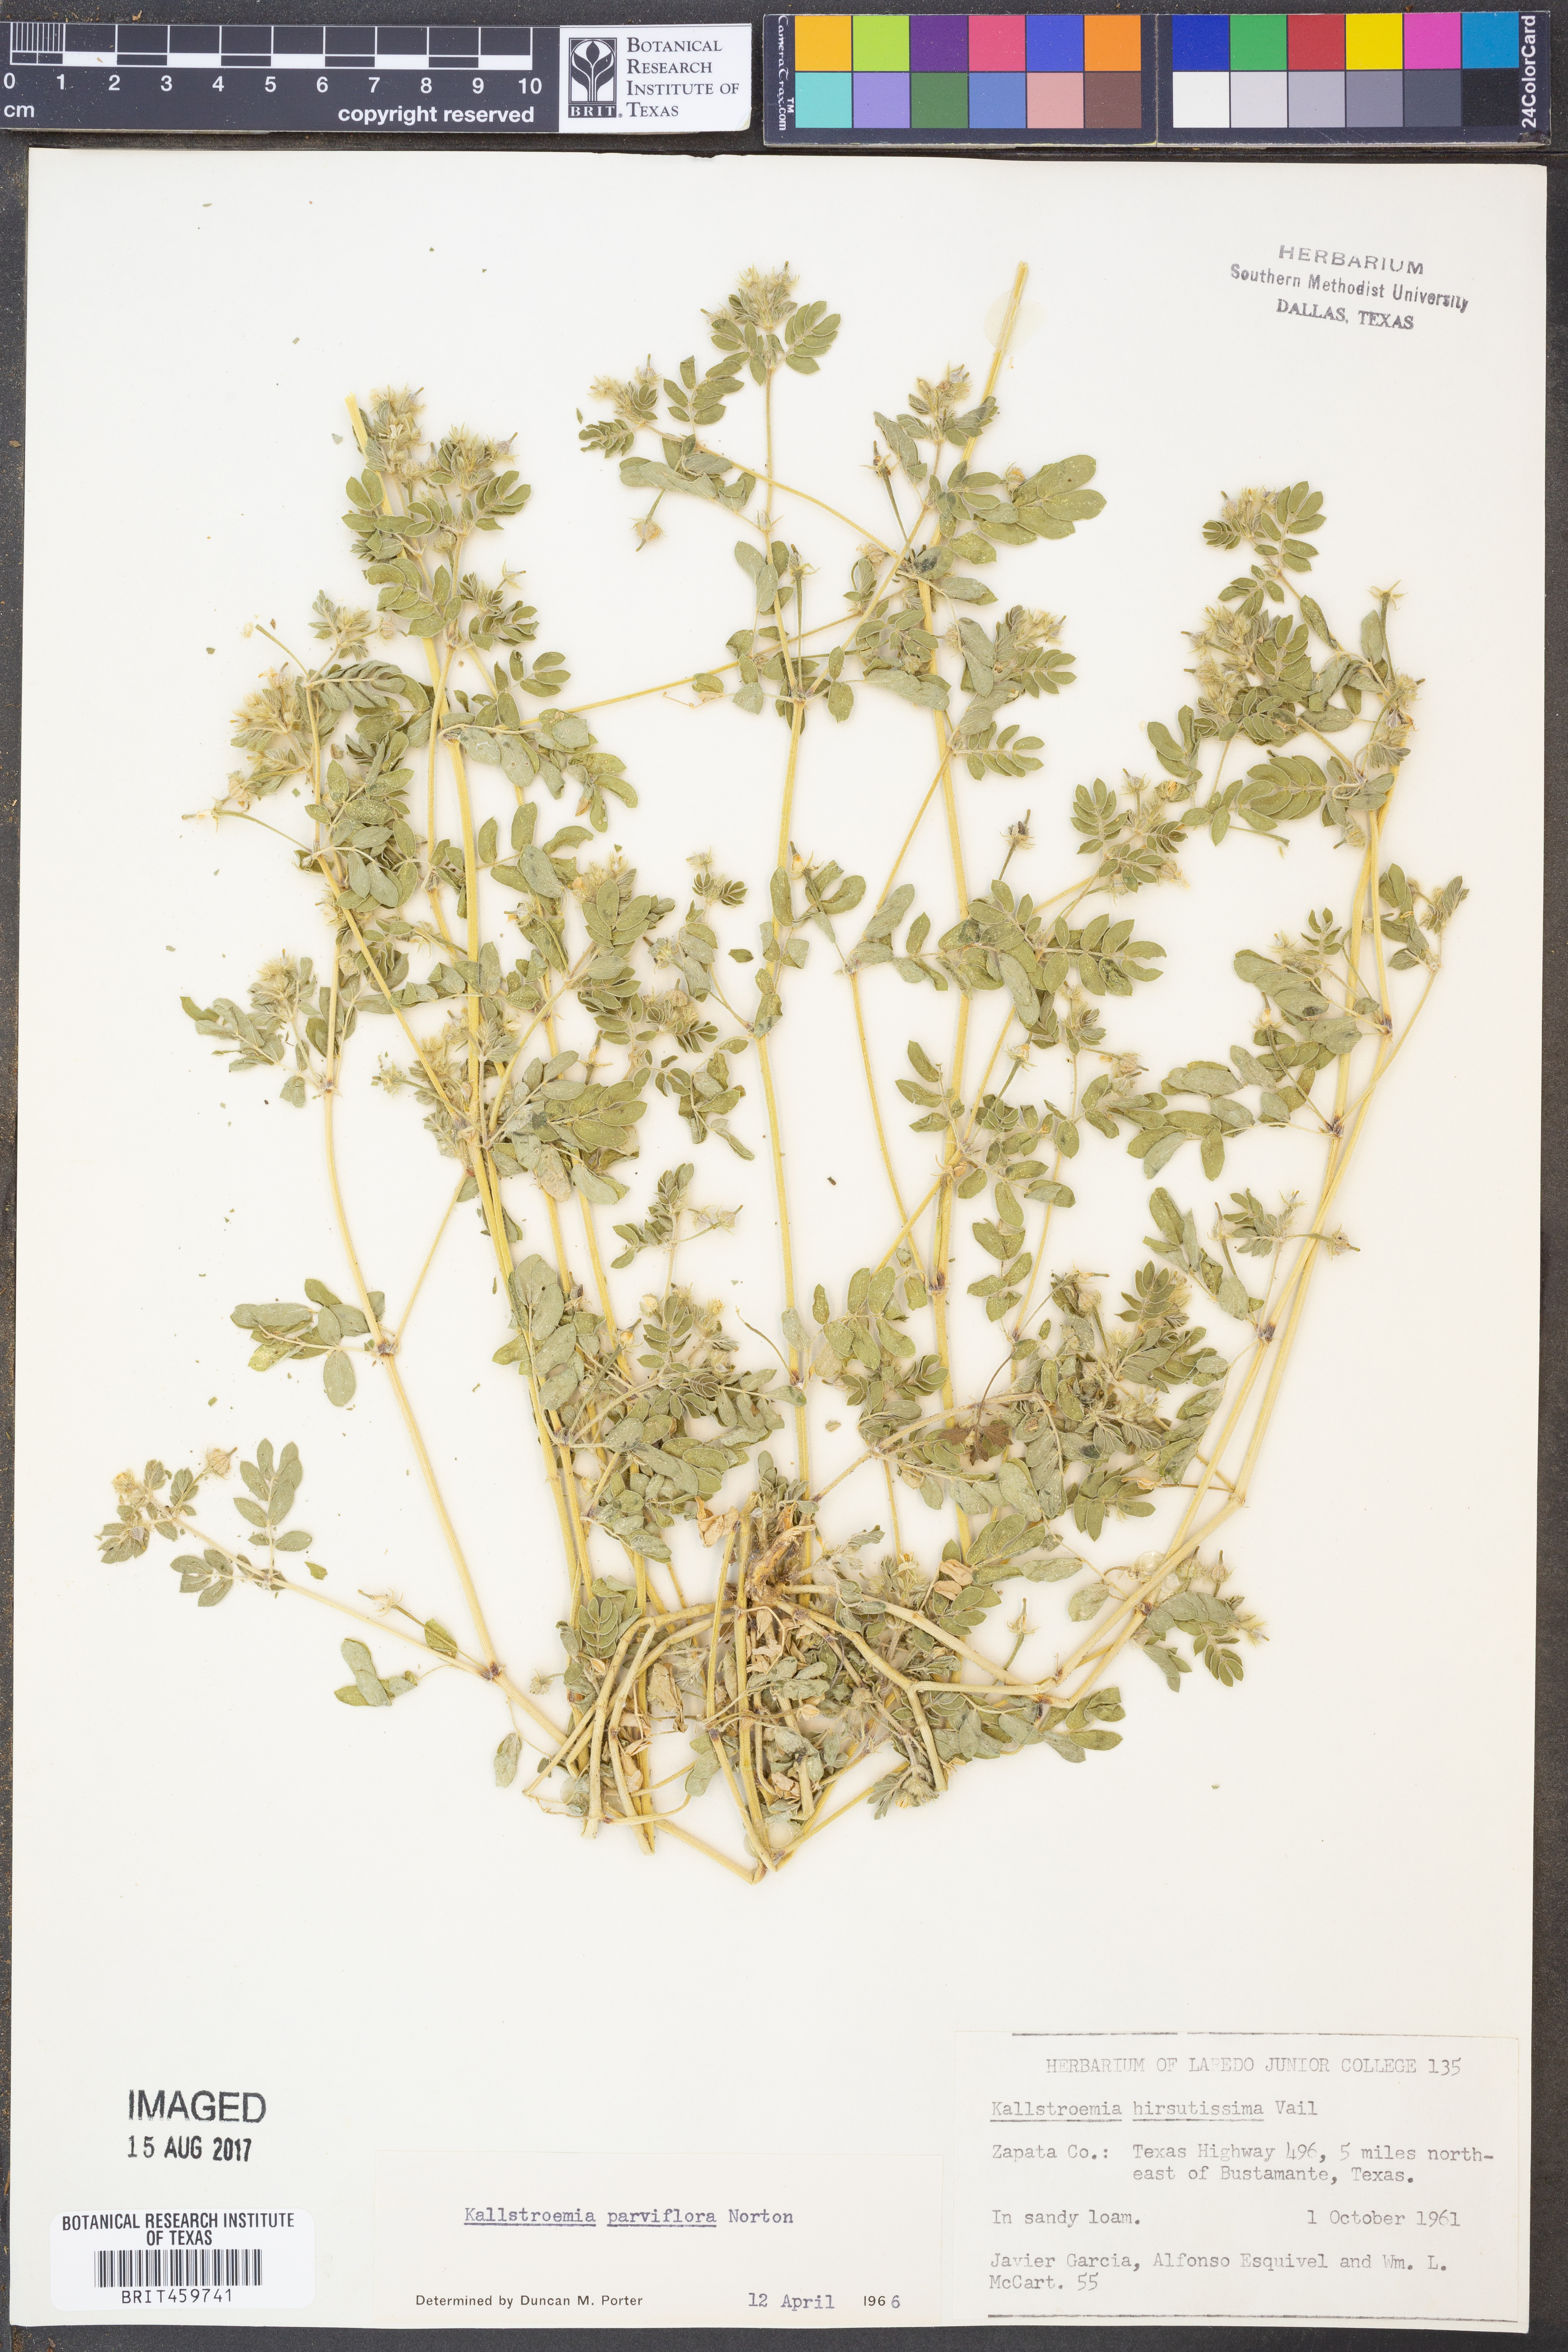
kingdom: Plantae
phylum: Tracheophyta
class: Magnoliopsida
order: Zygophyllales
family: Zygophyllaceae
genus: Kallstroemia
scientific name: Kallstroemia hirsutissima
